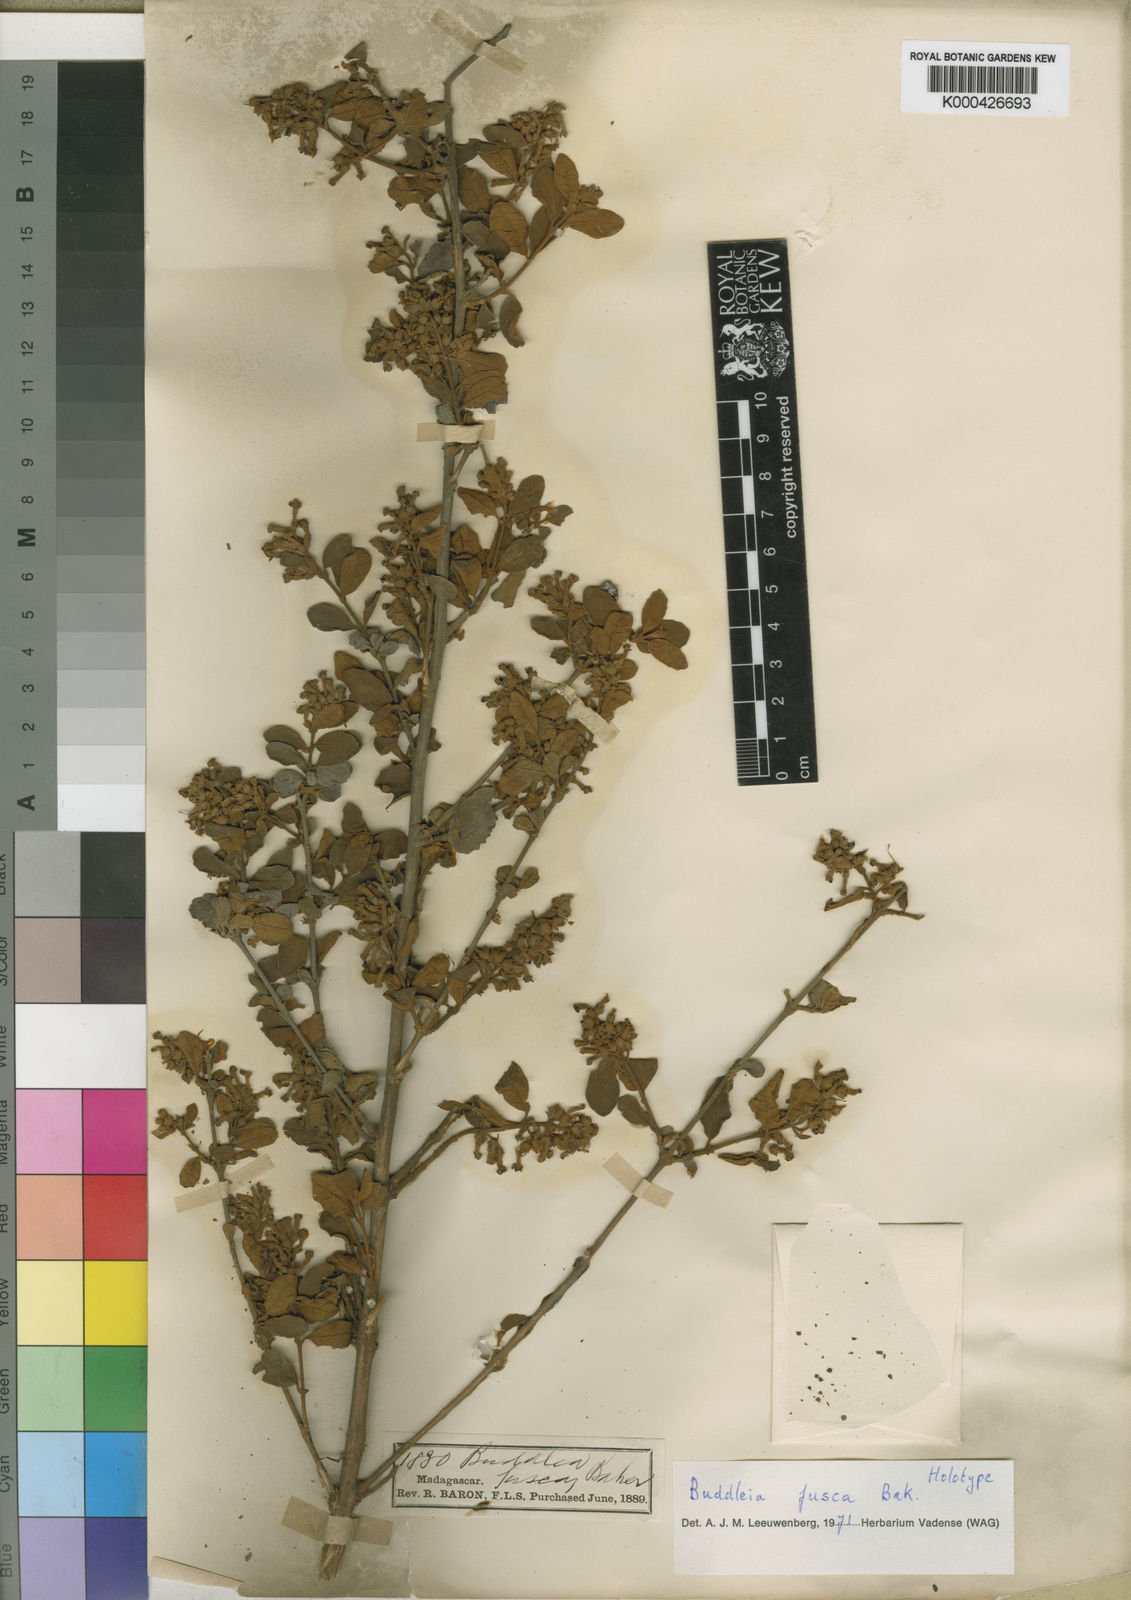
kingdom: Plantae
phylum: Tracheophyta
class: Magnoliopsida
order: Lamiales
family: Scrophulariaceae
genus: Buddleja
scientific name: Buddleja fusca
